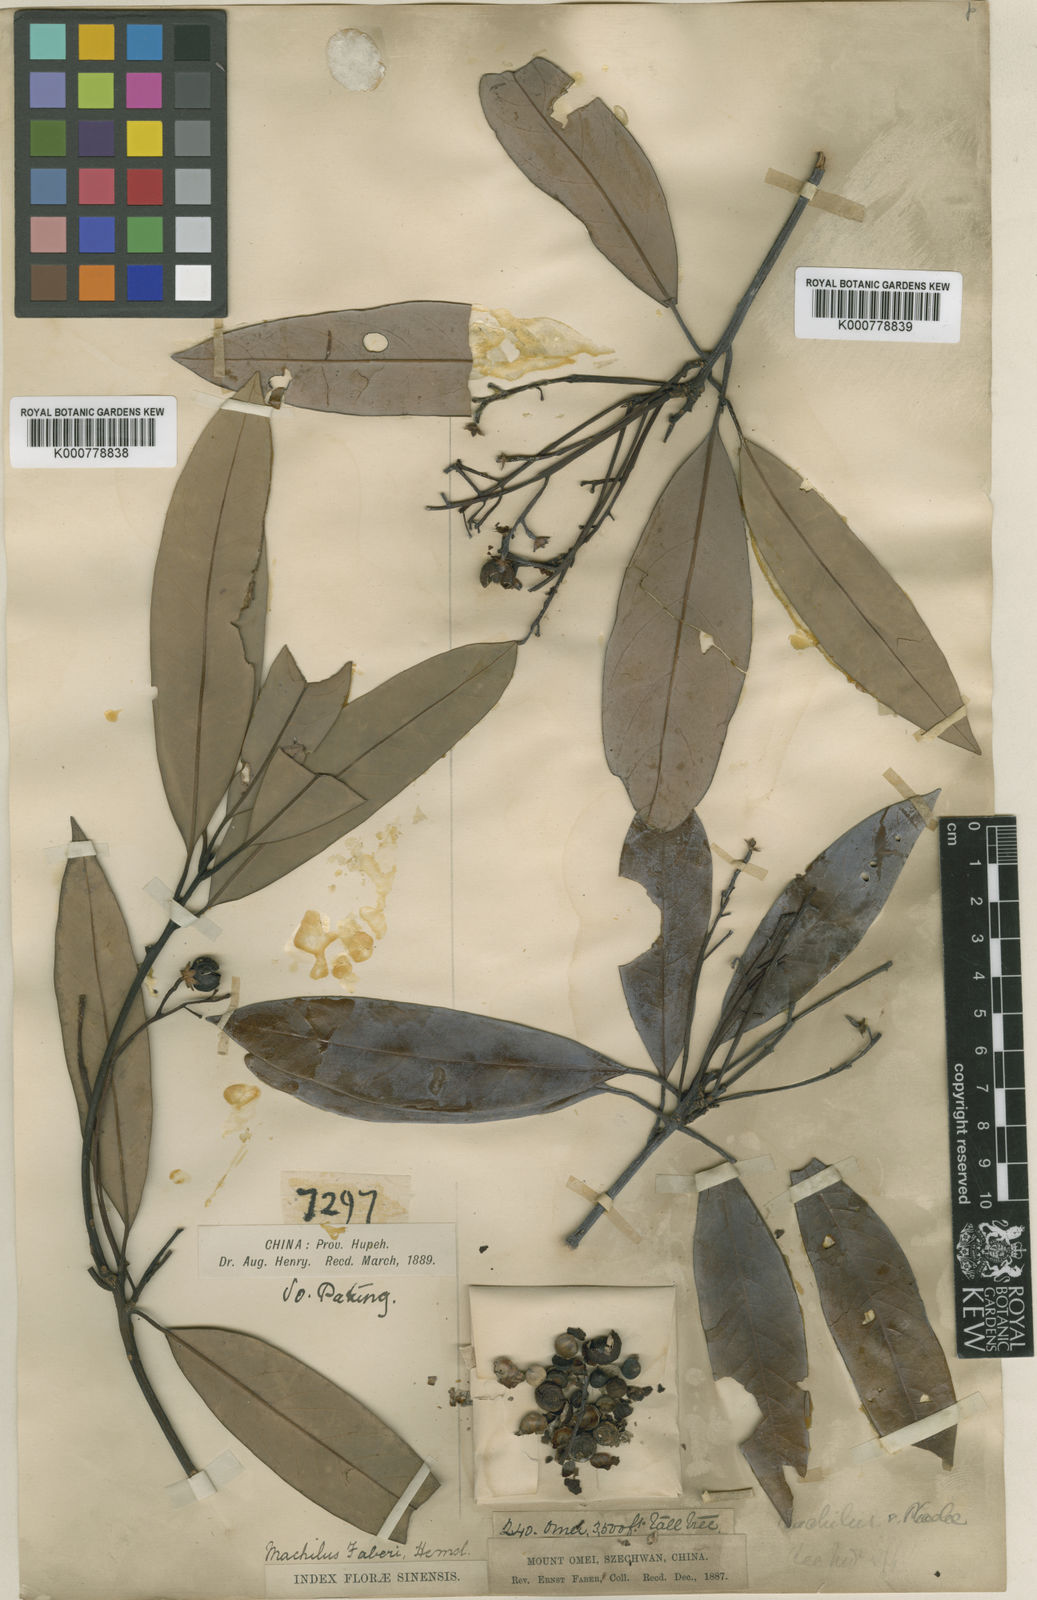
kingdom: Plantae
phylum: Tracheophyta
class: Magnoliopsida
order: Laurales
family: Lauraceae
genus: Phoebe
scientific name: Phoebe faberi
